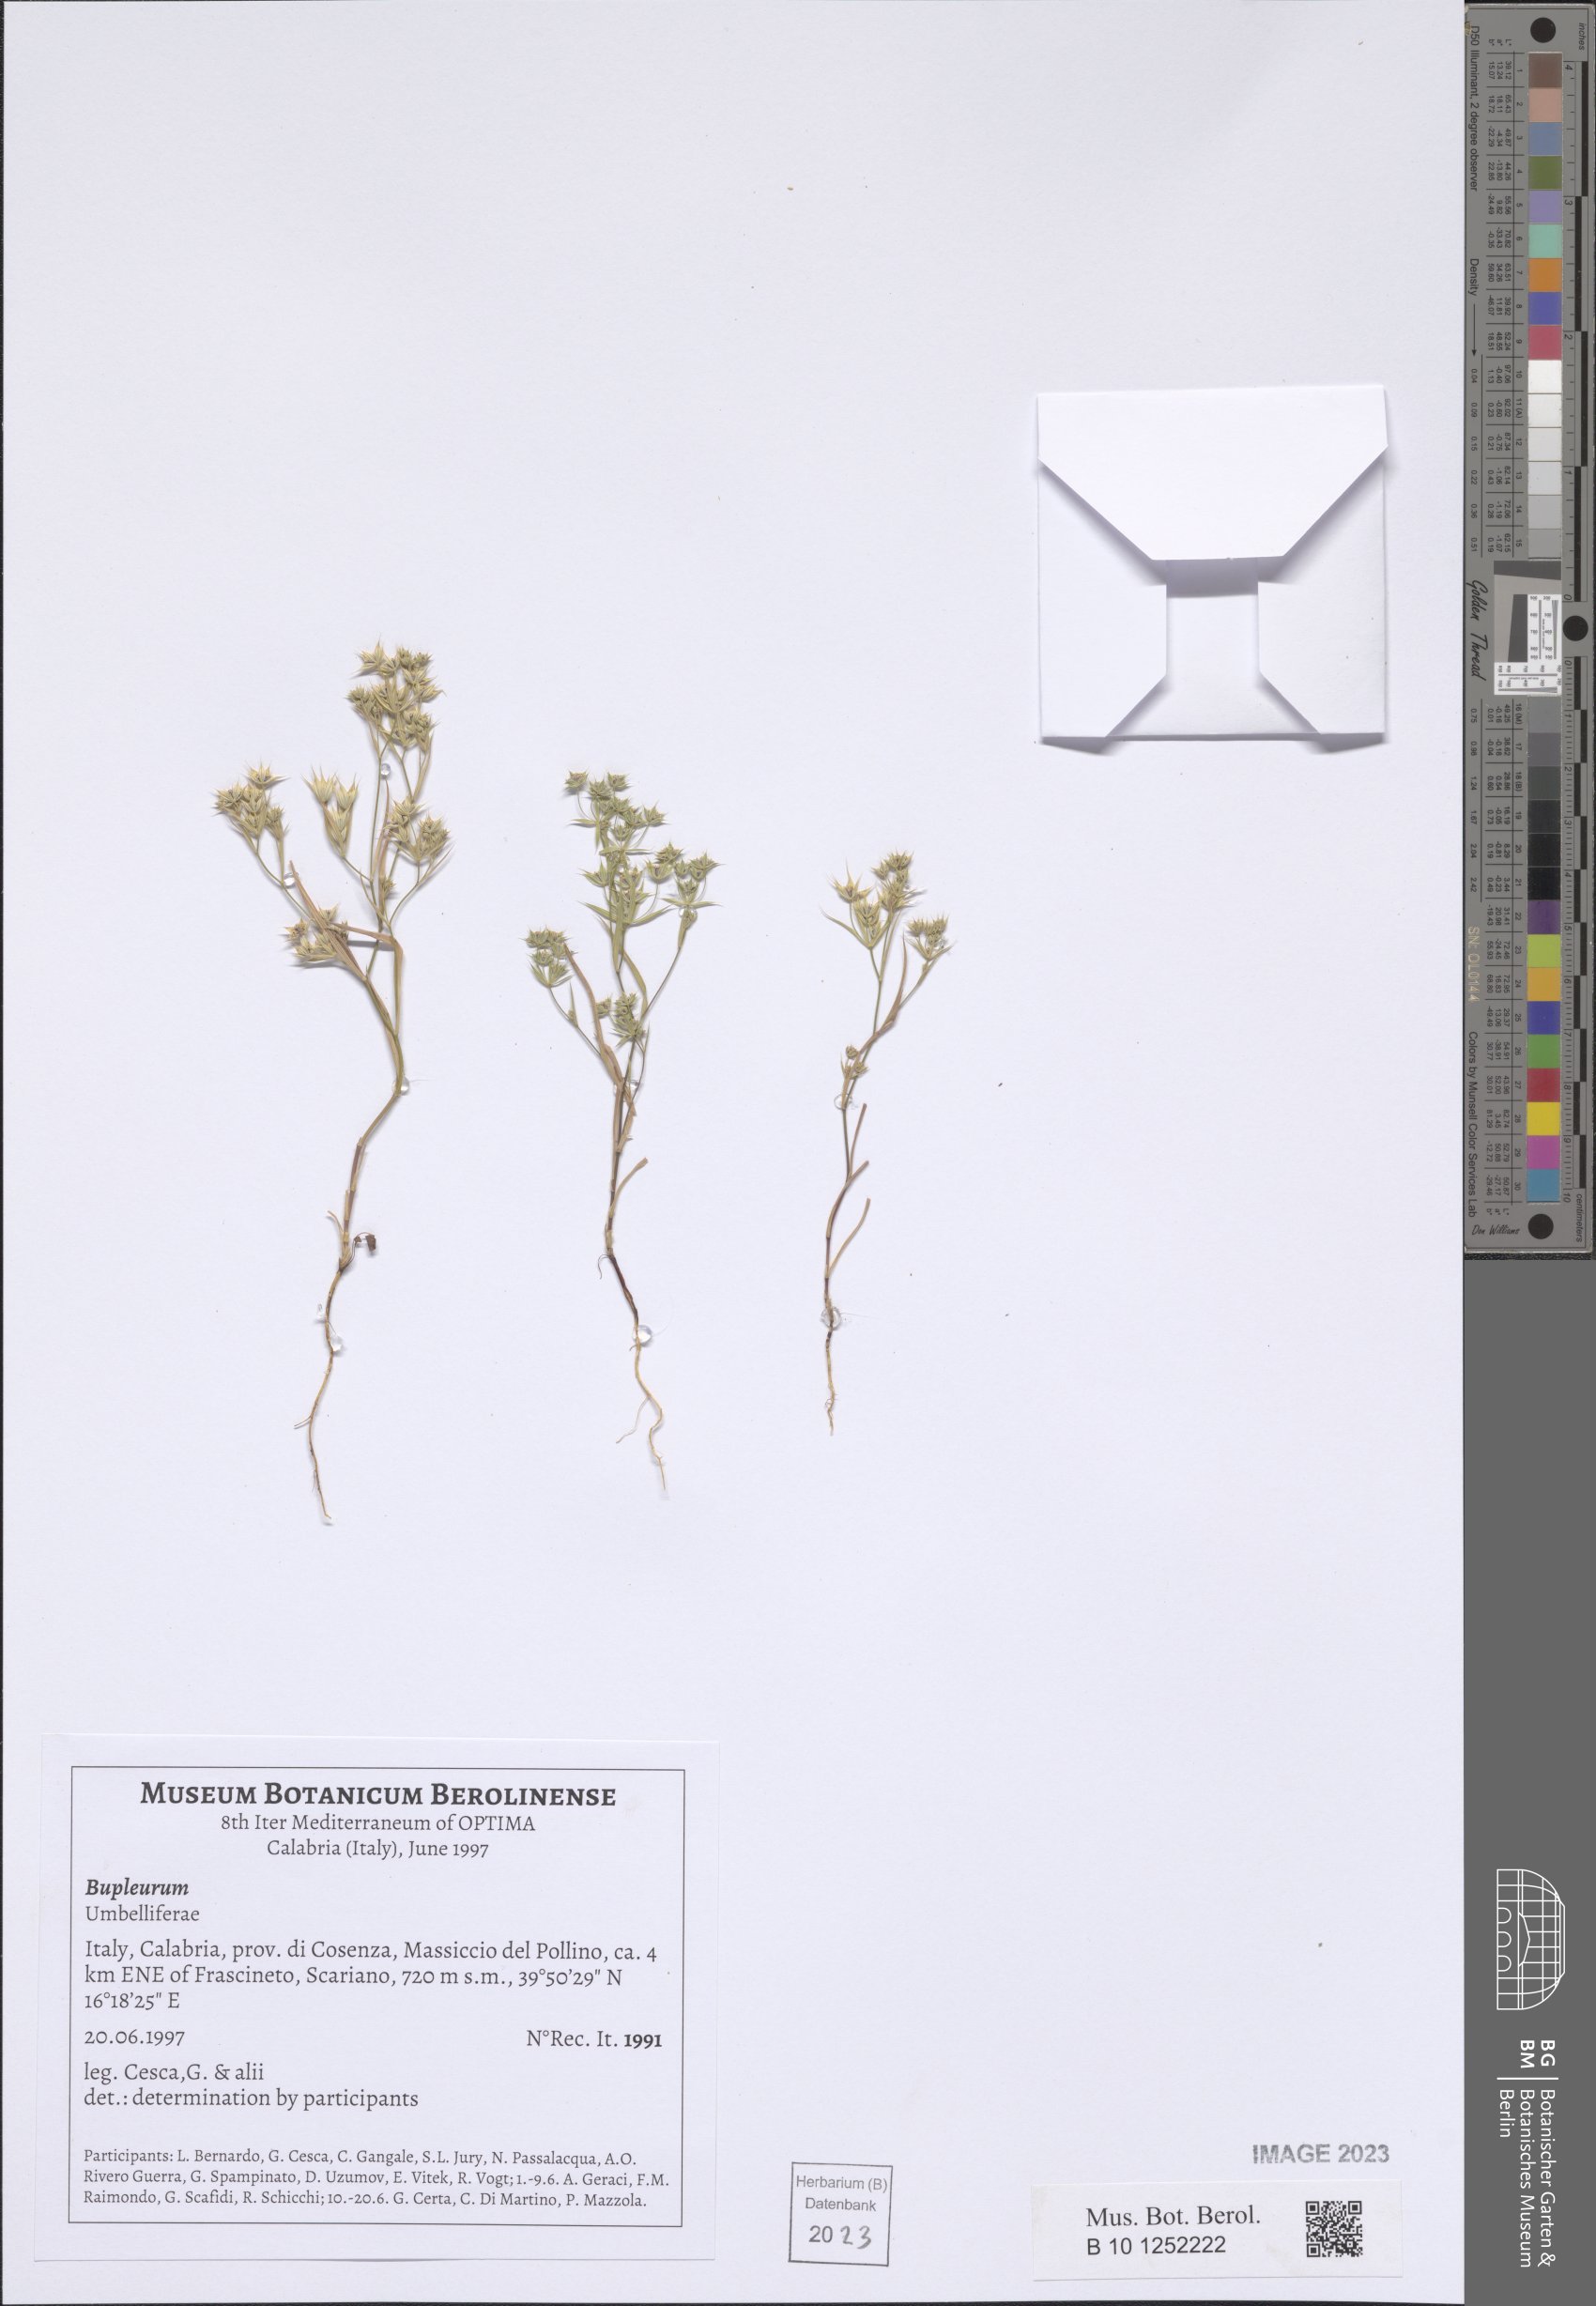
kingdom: Plantae
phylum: Tracheophyta
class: Magnoliopsida
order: Apiales
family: Apiaceae
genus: Bupleurum
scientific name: Bupleurum
